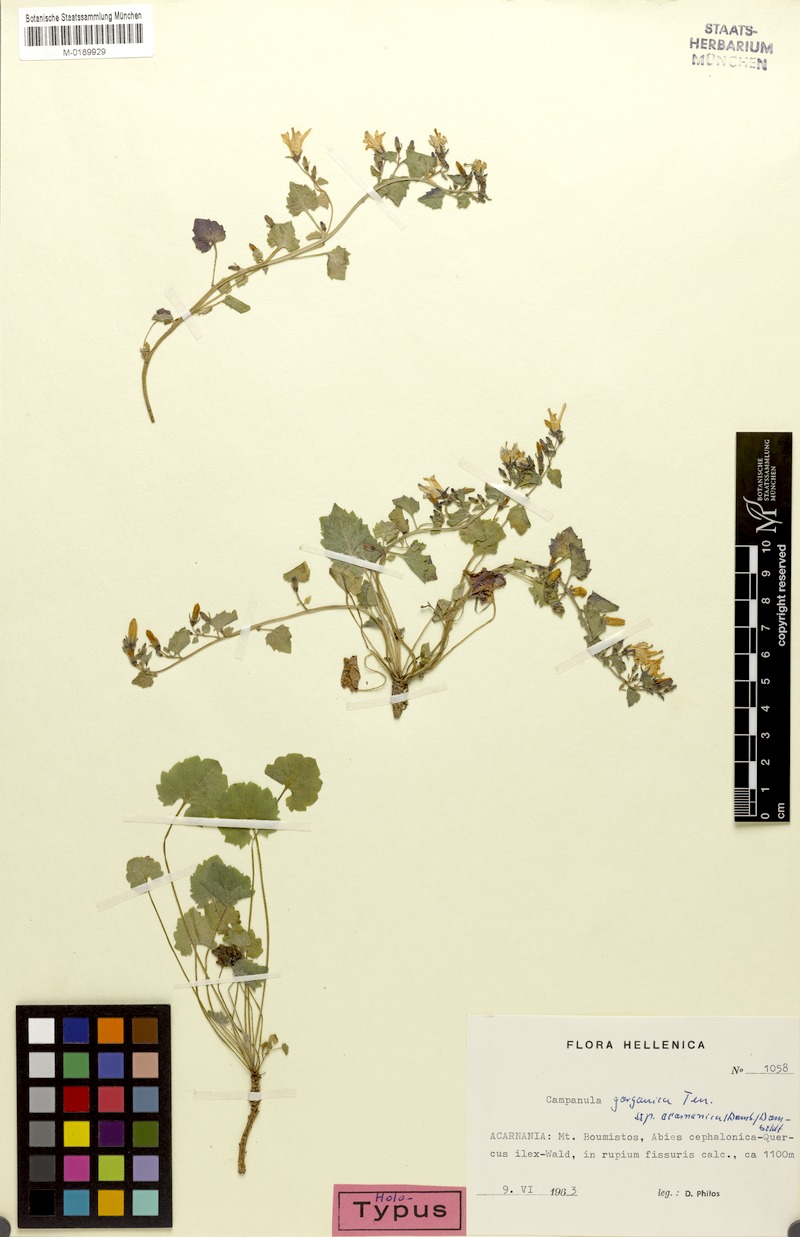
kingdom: Plantae
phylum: Tracheophyta
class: Magnoliopsida
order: Asterales
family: Campanulaceae
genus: Campanula
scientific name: Campanula garganica
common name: Adriatic bellflower
